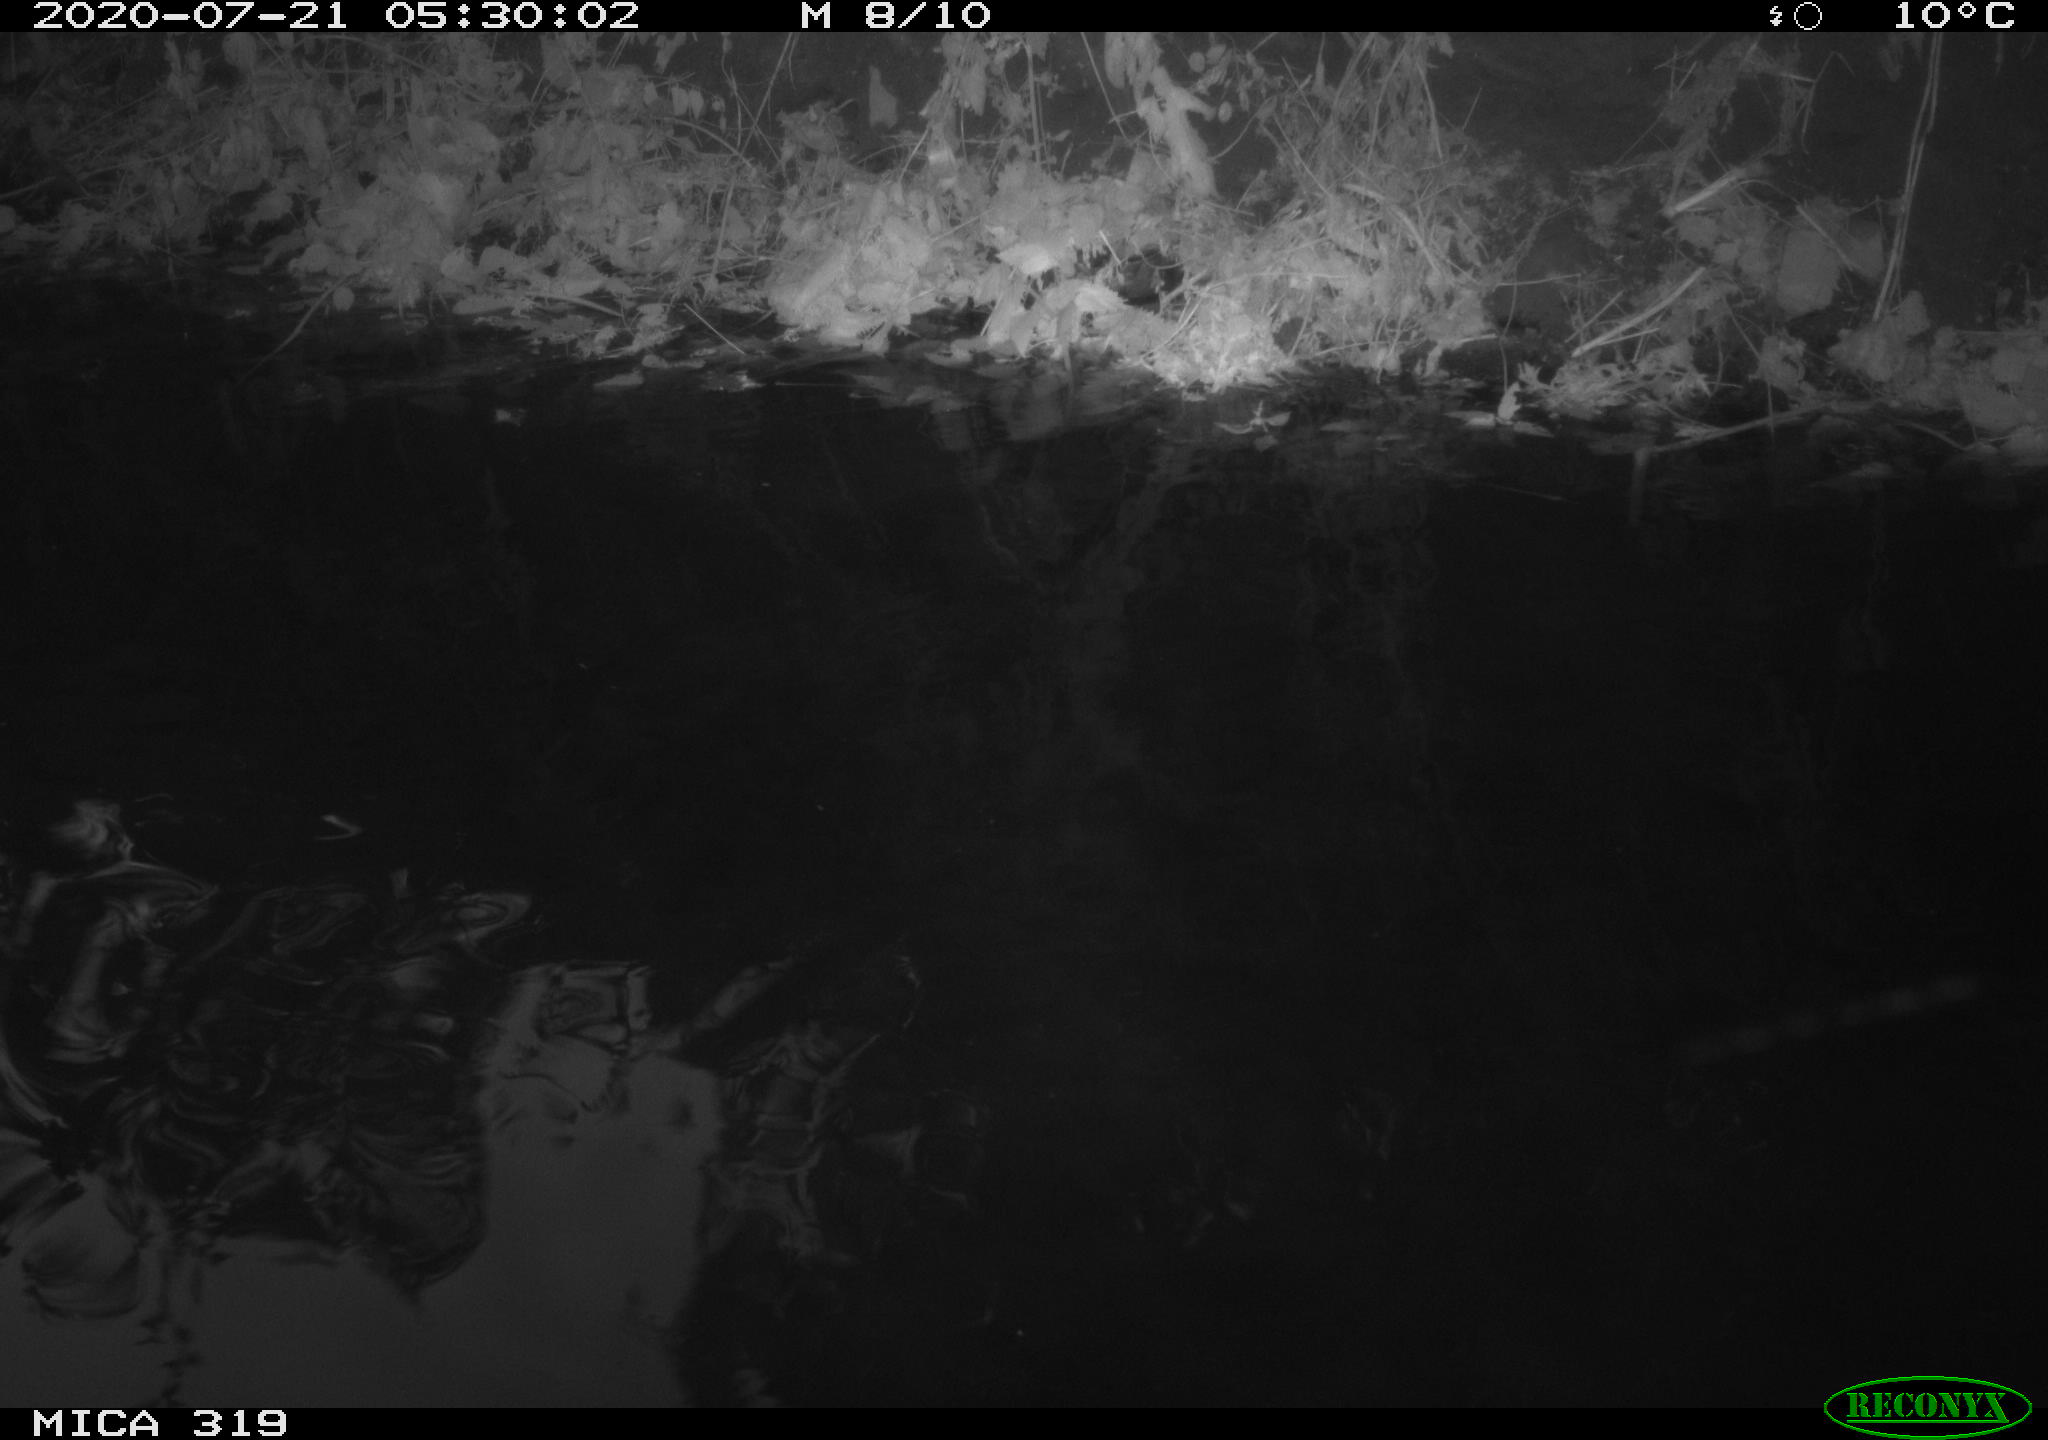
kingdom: Animalia
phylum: Chordata
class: Aves
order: Anseriformes
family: Anatidae
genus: Anas
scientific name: Anas platyrhynchos
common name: Mallard
